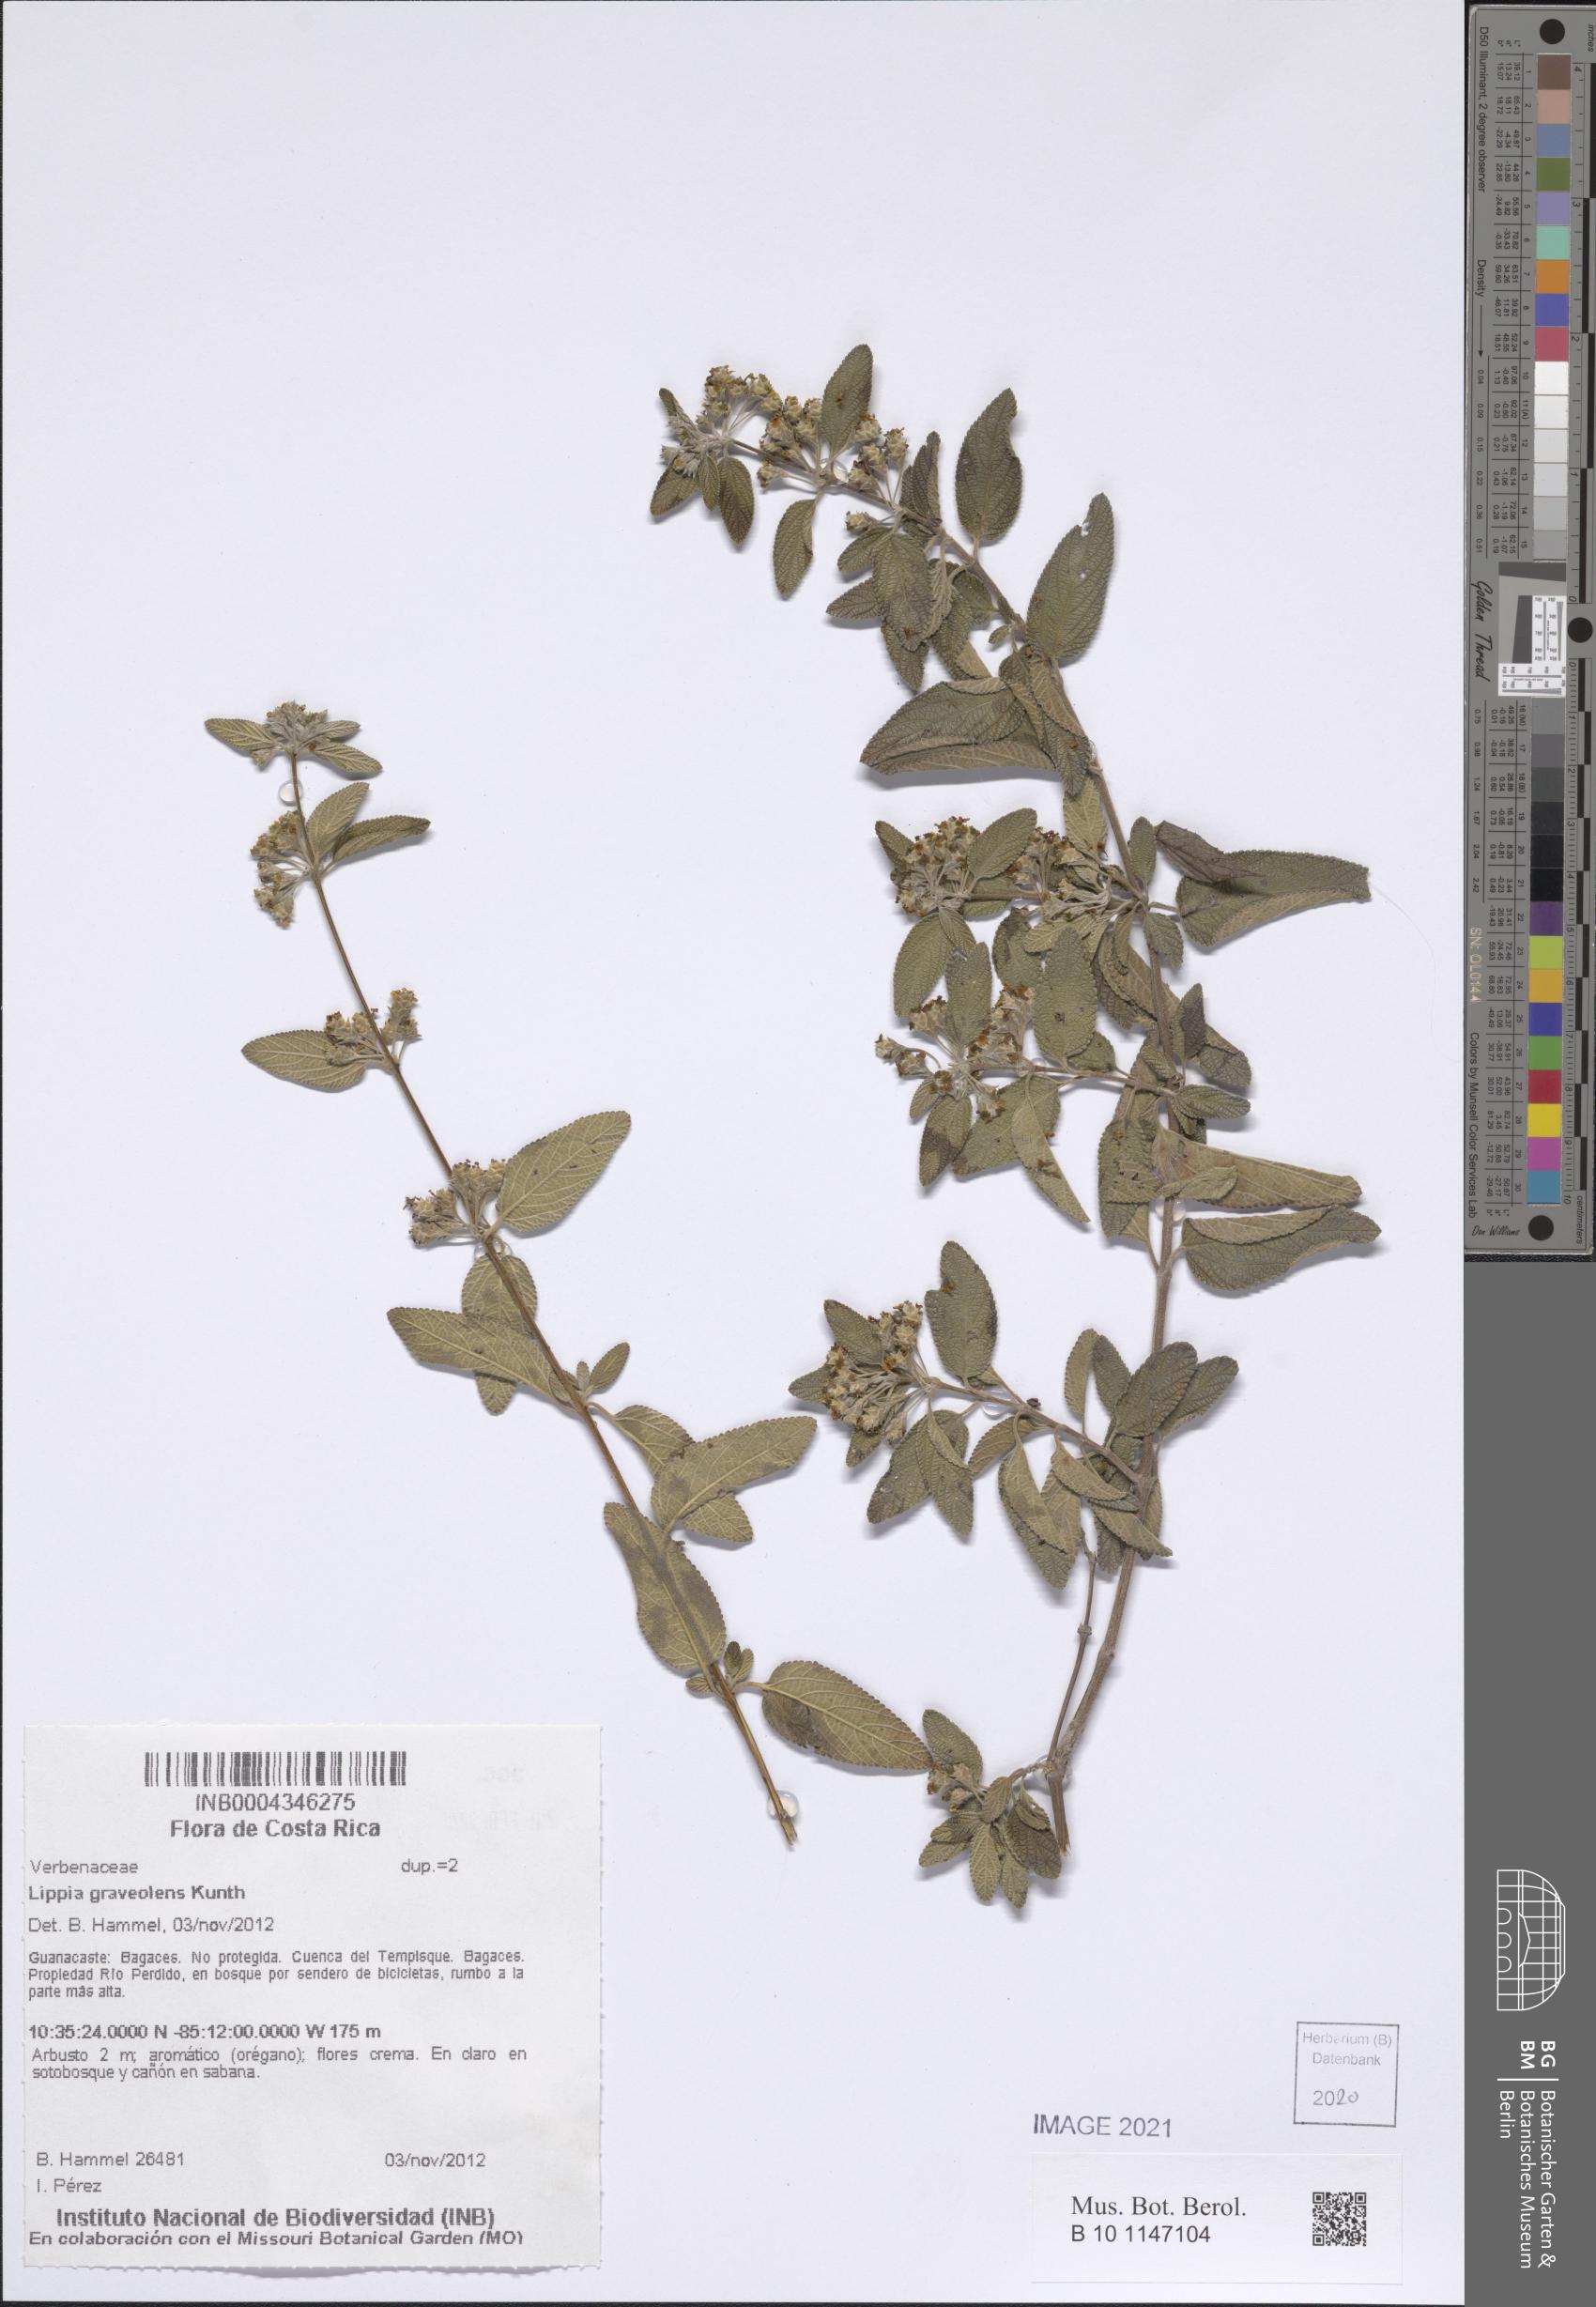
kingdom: Plantae
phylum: Tracheophyta
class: Magnoliopsida
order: Lamiales
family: Verbenaceae
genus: Lippia
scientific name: Lippia origanoides
